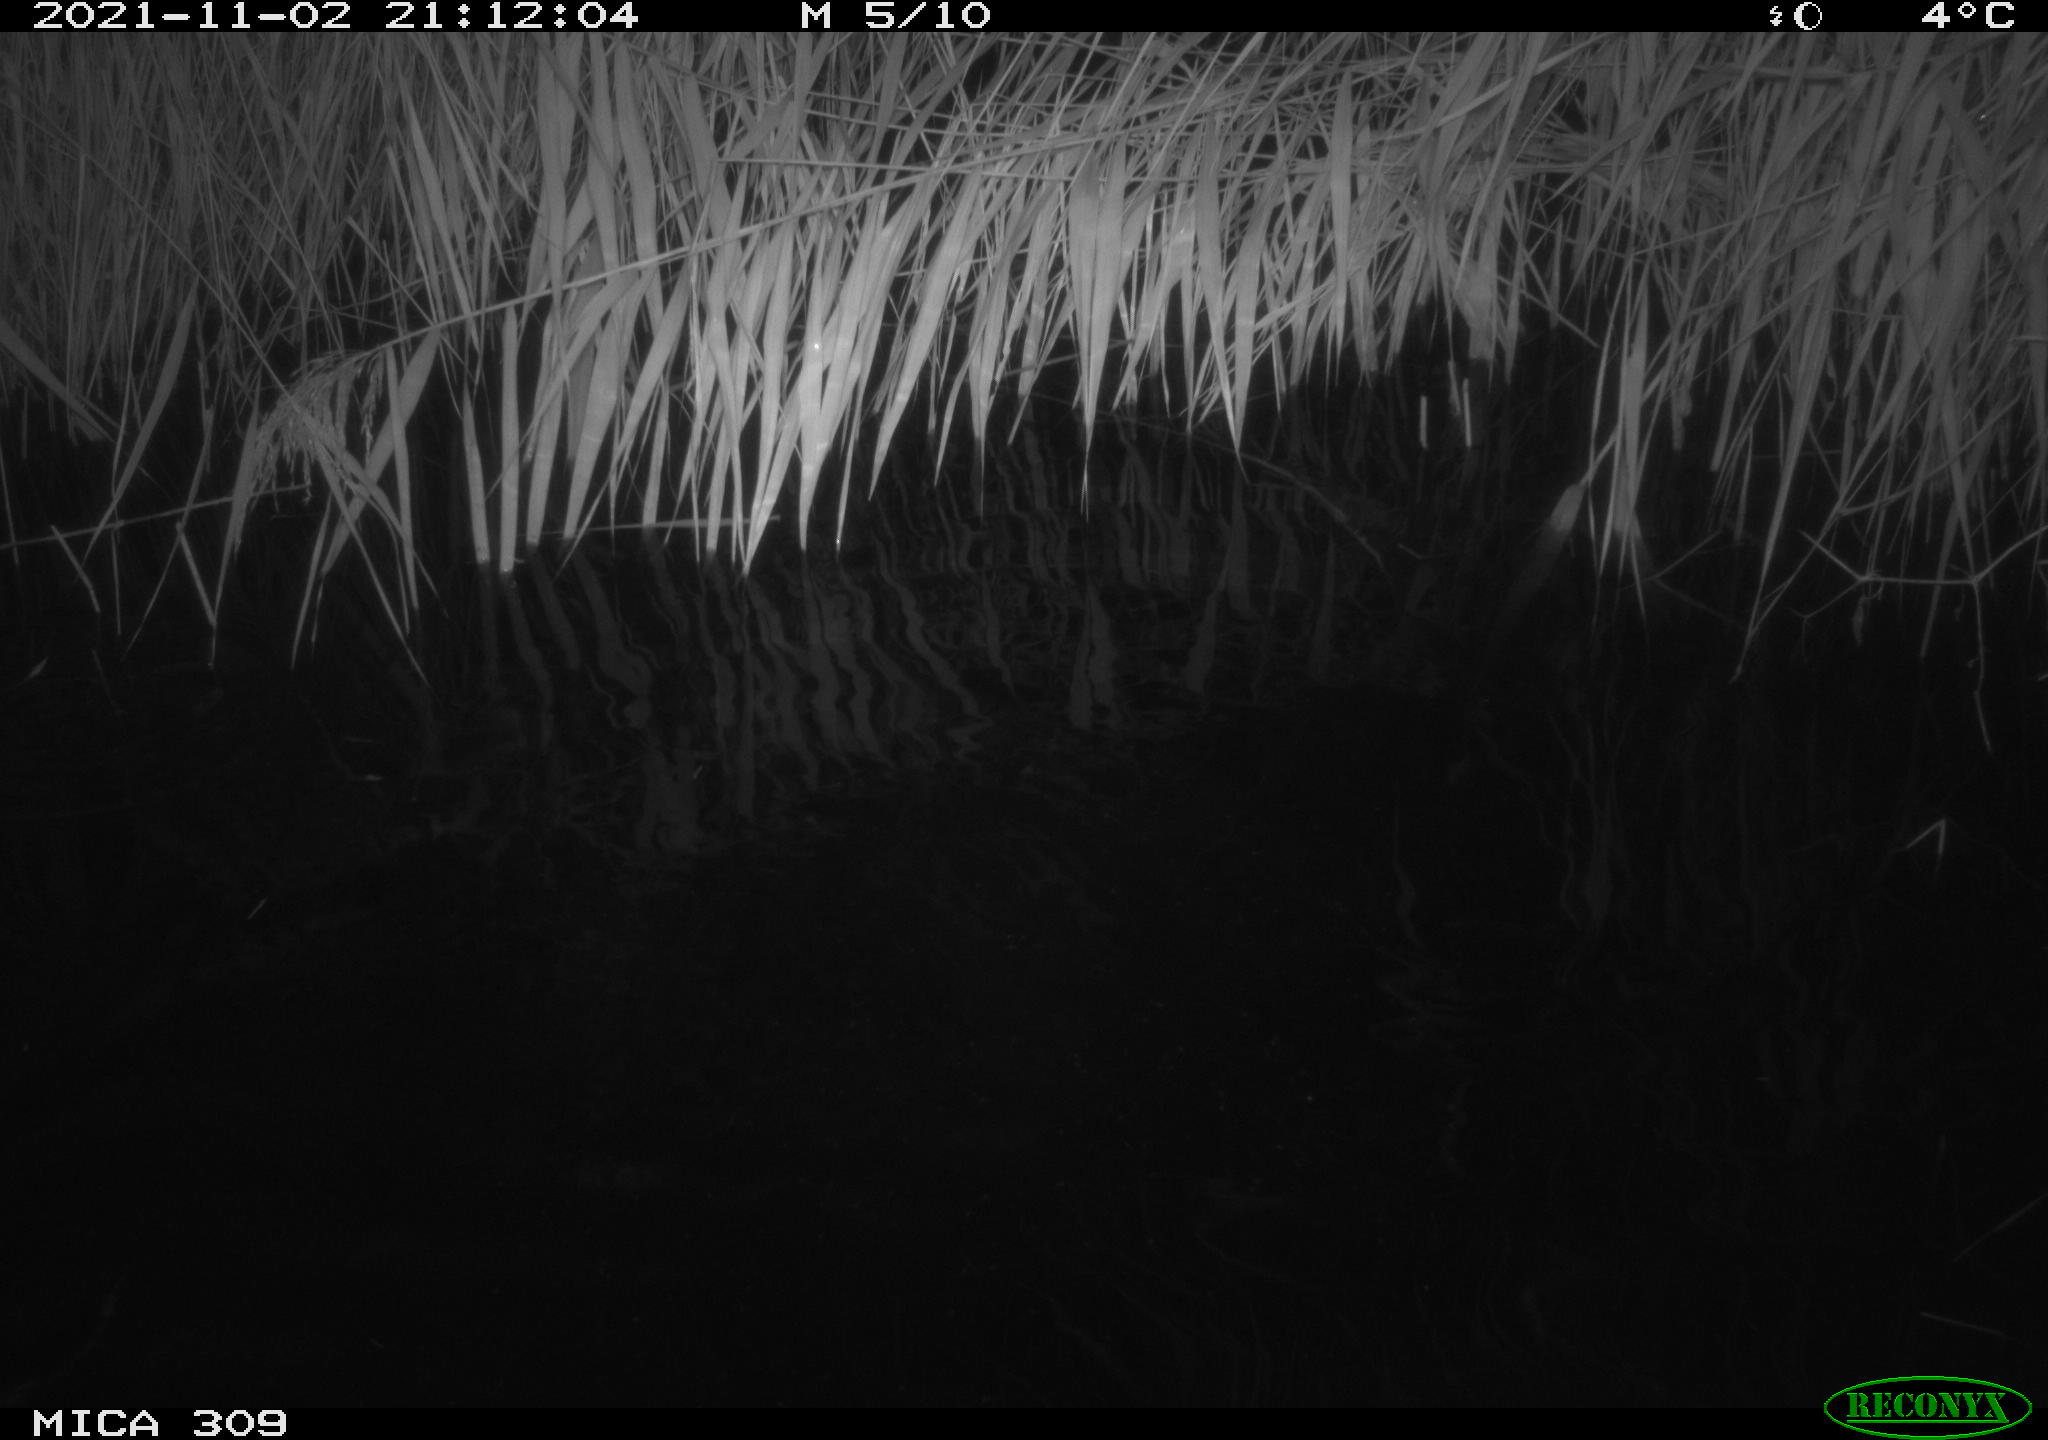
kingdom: Animalia
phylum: Chordata
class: Mammalia
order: Rodentia
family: Muridae
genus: Rattus
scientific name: Rattus norvegicus
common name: Brown rat
